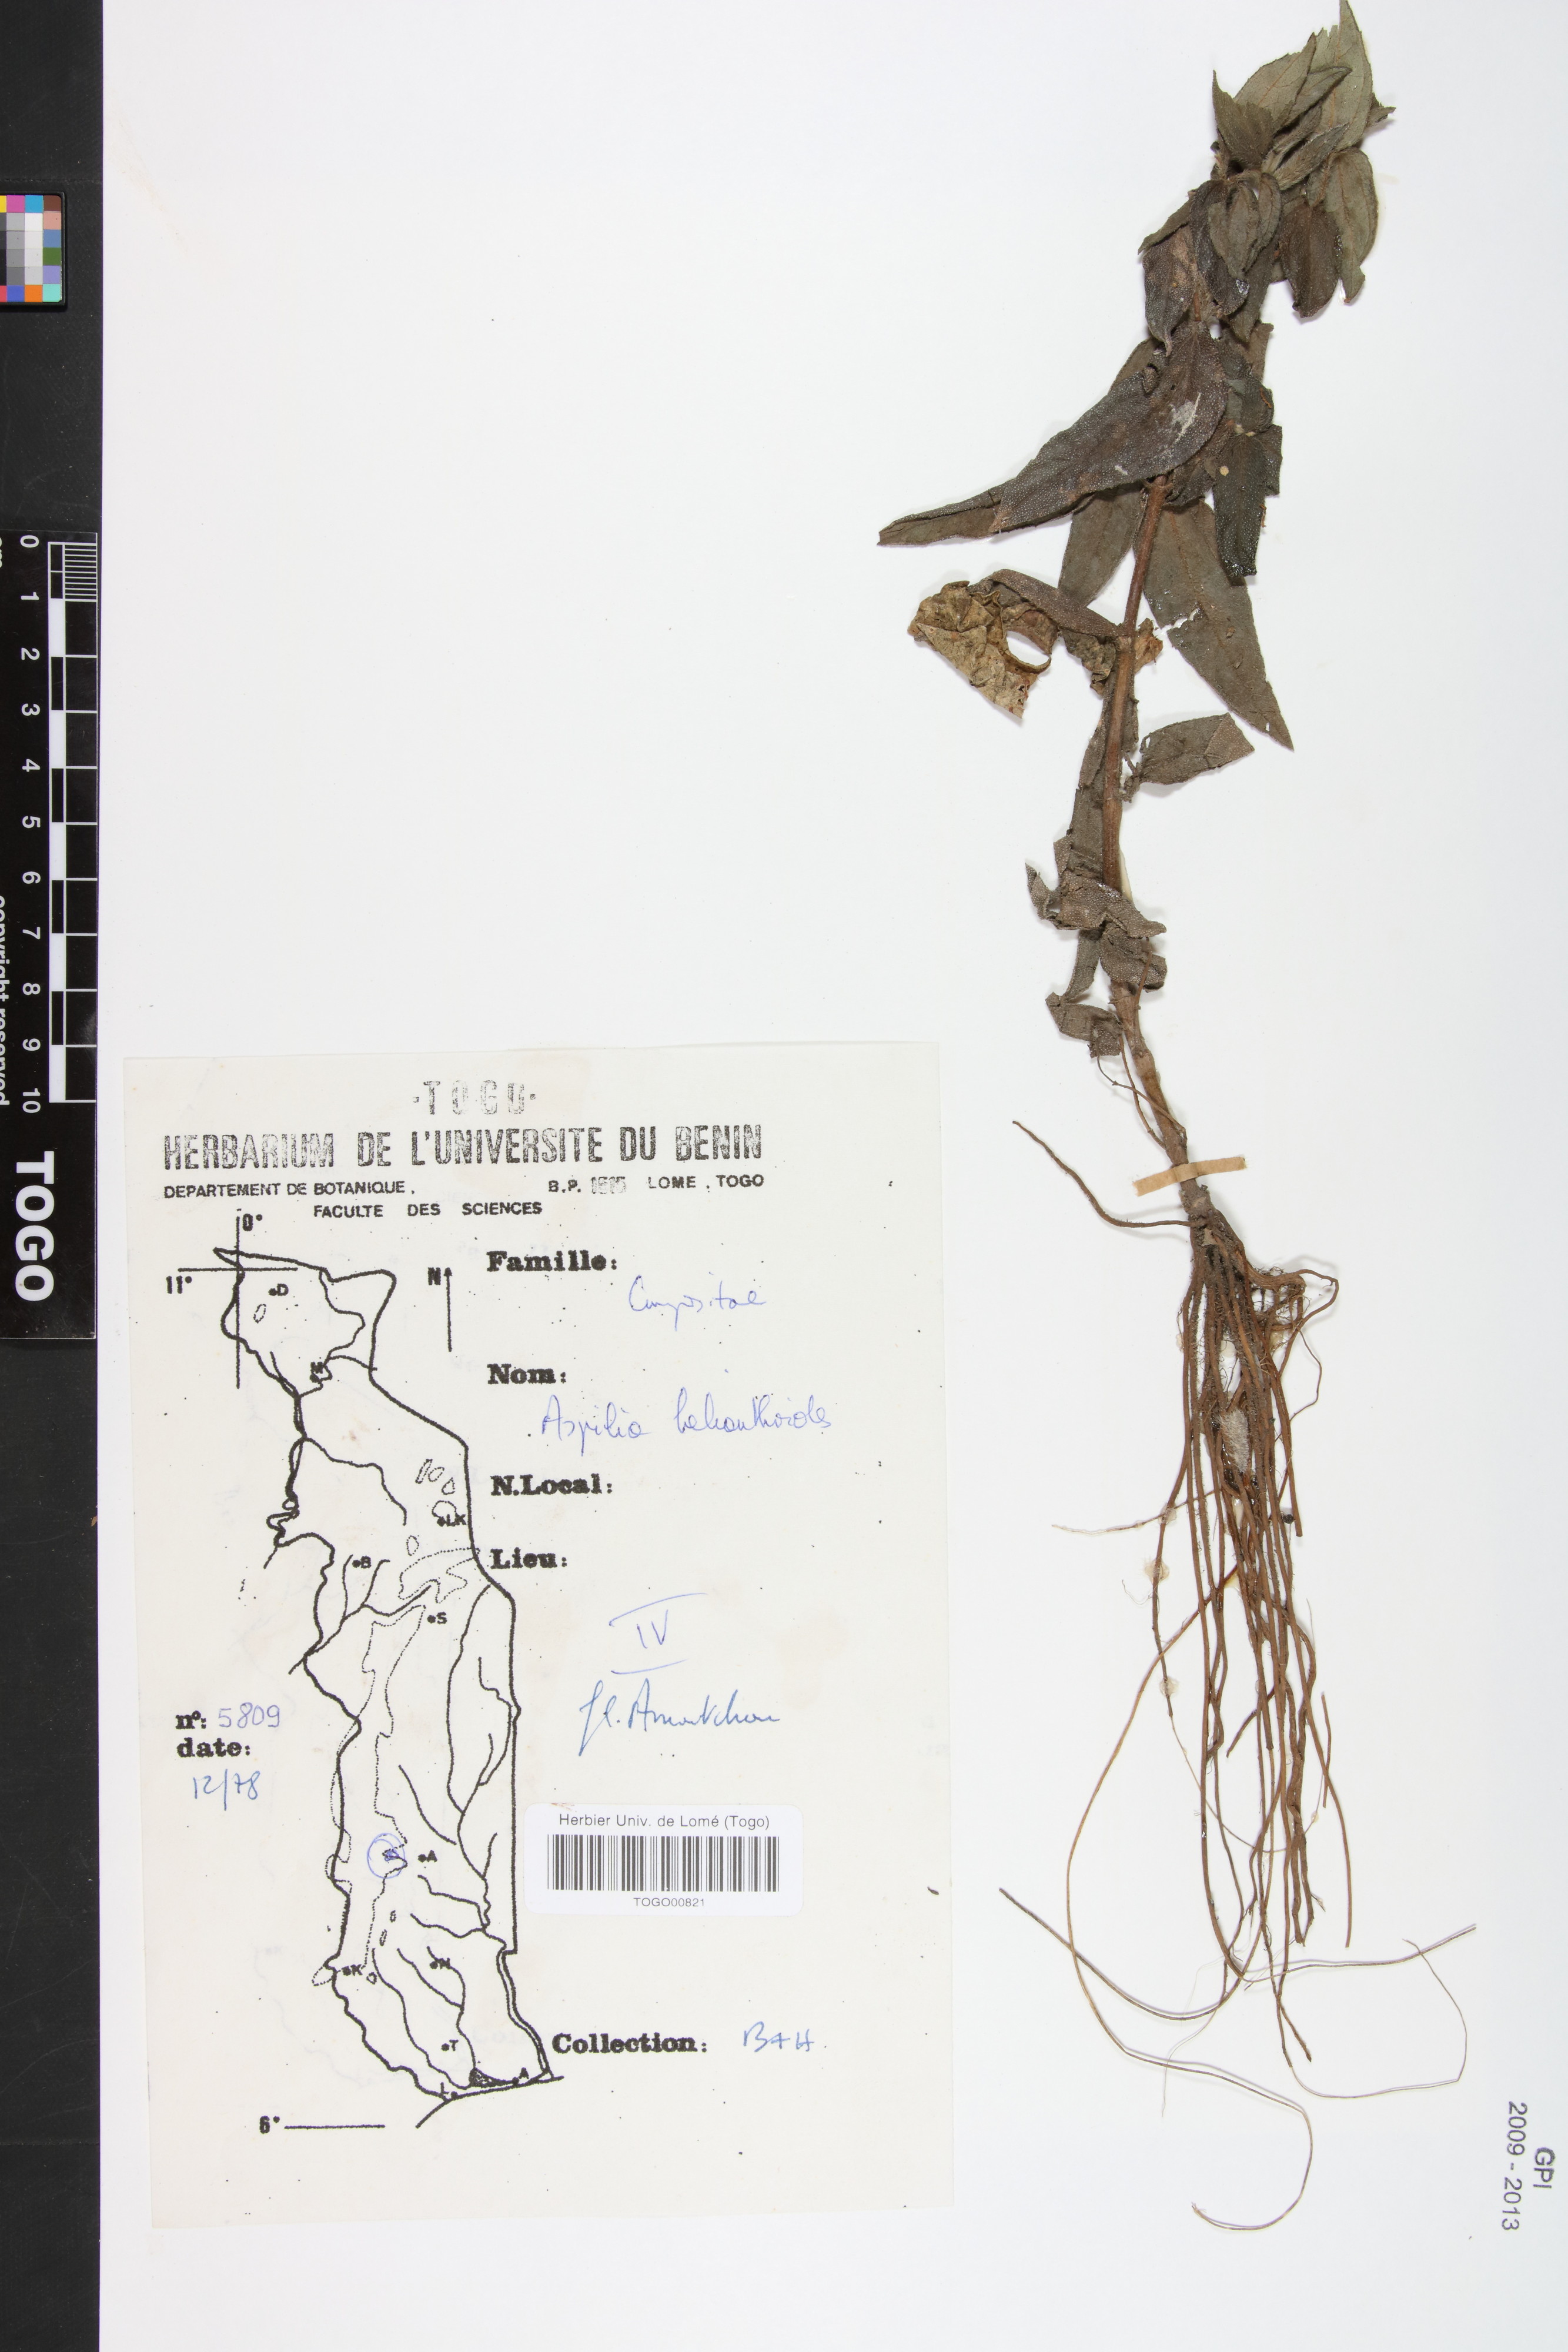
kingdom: Plantae
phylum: Tracheophyta
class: Magnoliopsida
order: Asterales
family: Asteraceae
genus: Aspilia
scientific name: Aspilia helianthoides
